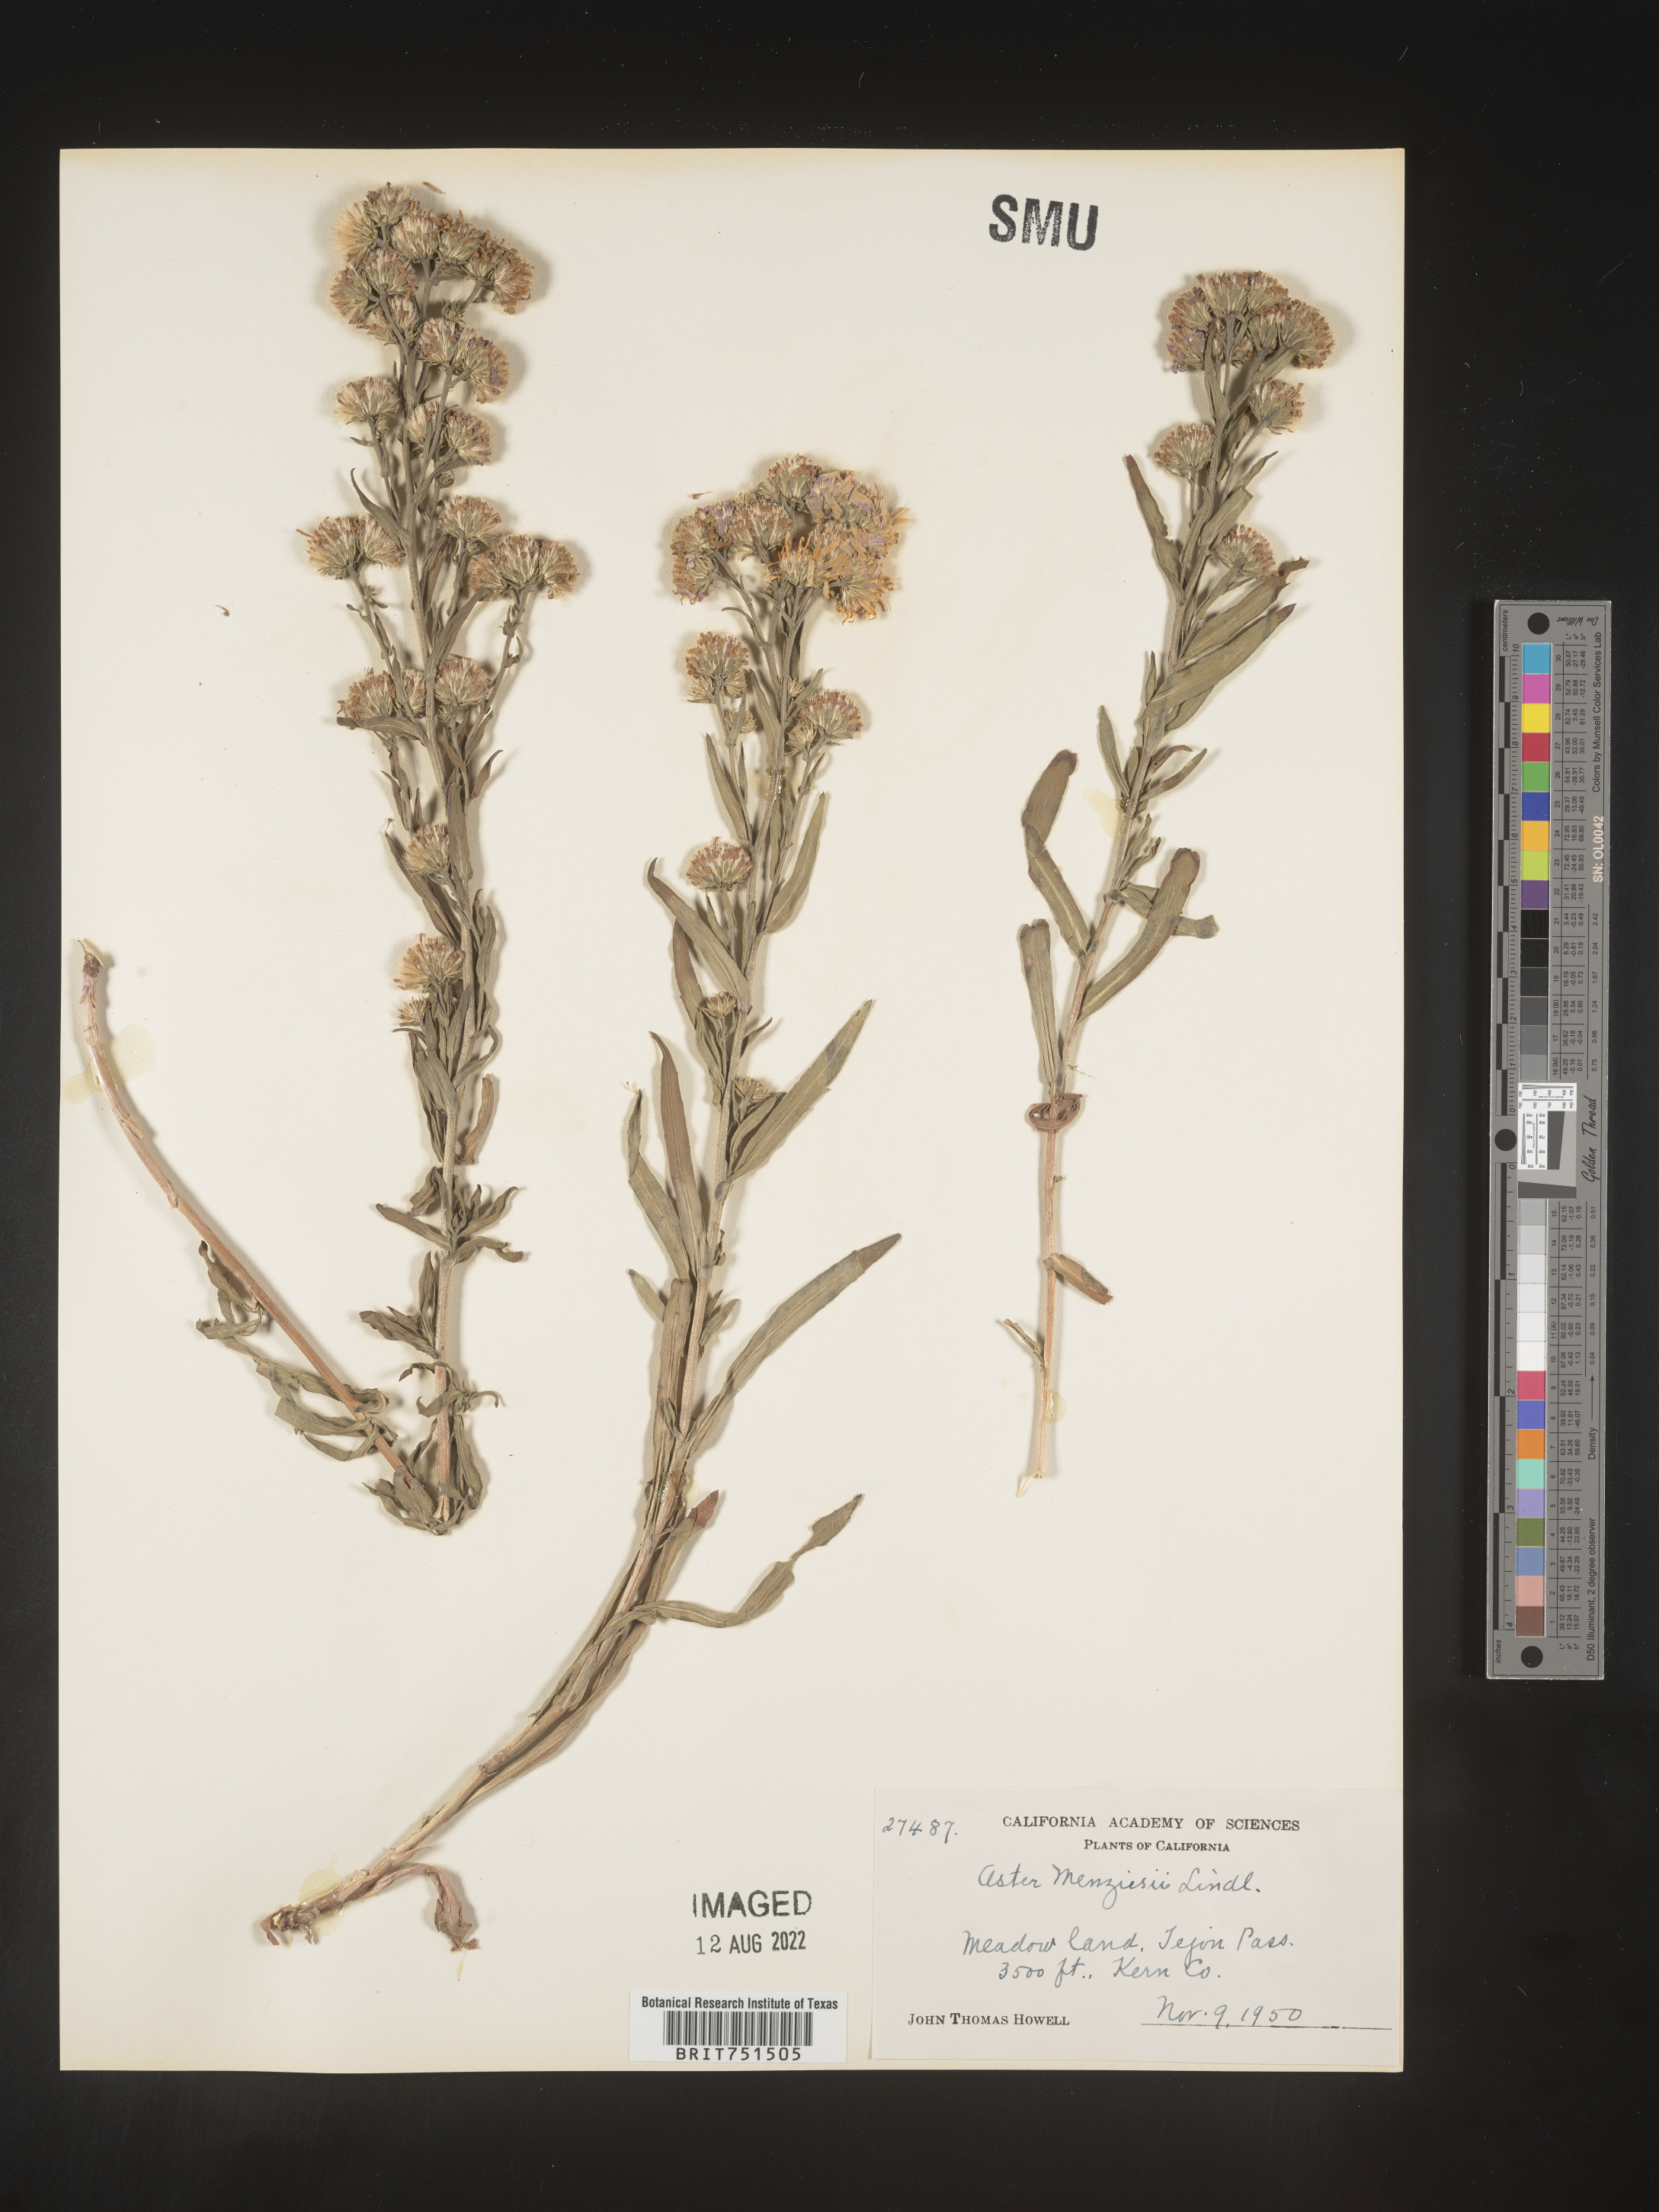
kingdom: Plantae
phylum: Tracheophyta
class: Magnoliopsida
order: Asterales
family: Asteraceae
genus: Symphyotrichum
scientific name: Symphyotrichum chilense
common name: Pacific aster
